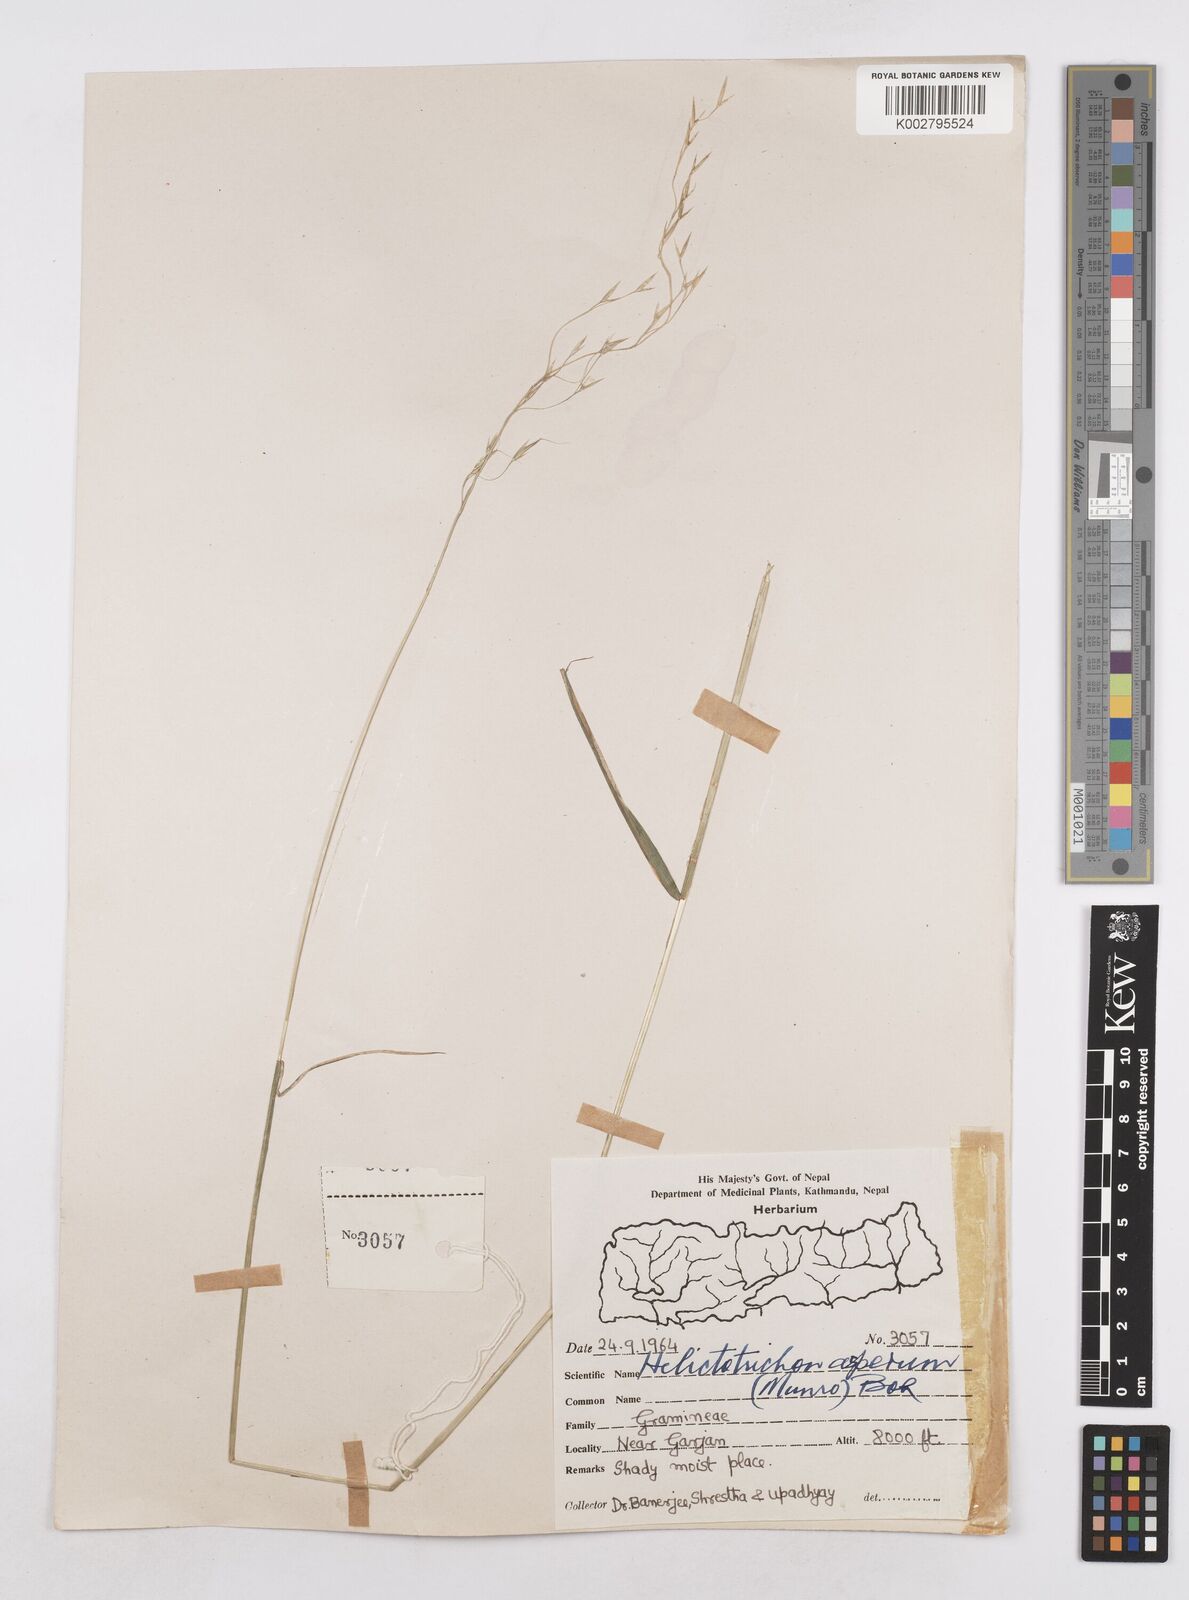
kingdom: Plantae
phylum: Tracheophyta
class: Liliopsida
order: Poales
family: Poaceae
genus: Trisetopsis
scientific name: Trisetopsis junghuhnii
